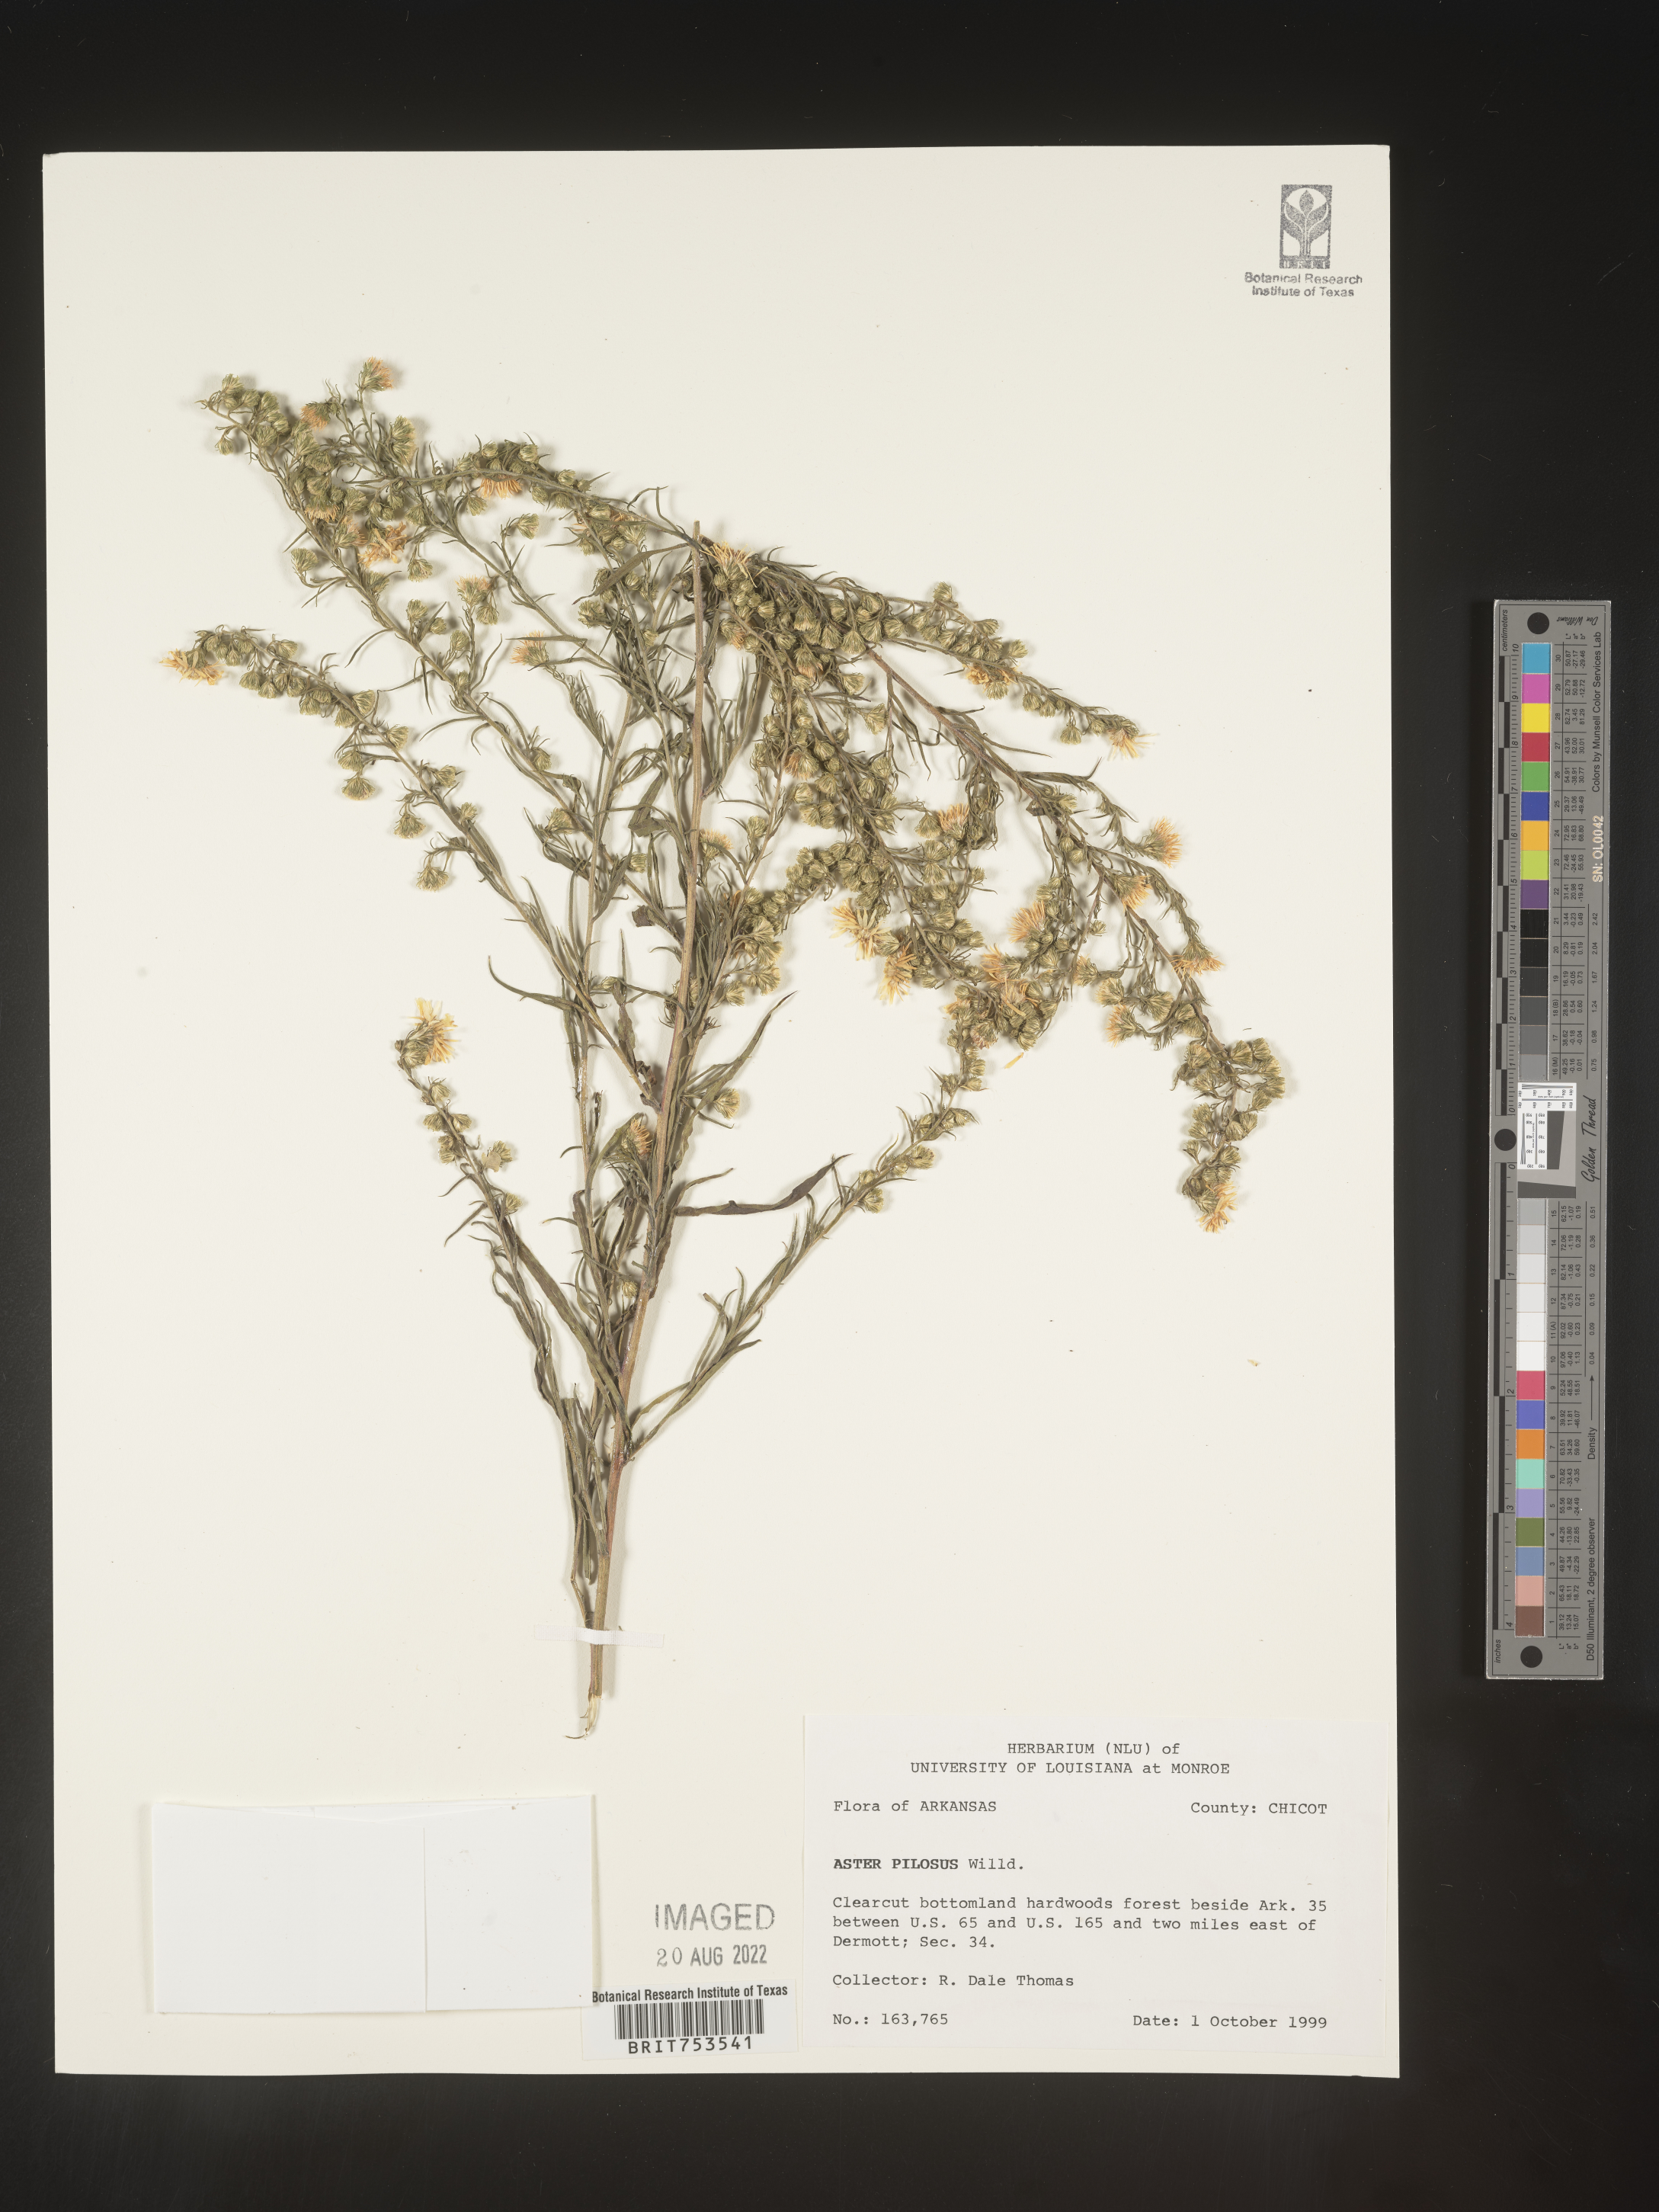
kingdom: Plantae
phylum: Tracheophyta
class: Magnoliopsida
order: Asterales
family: Asteraceae
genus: Symphyotrichum
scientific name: Symphyotrichum pilosum
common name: Awl aster
